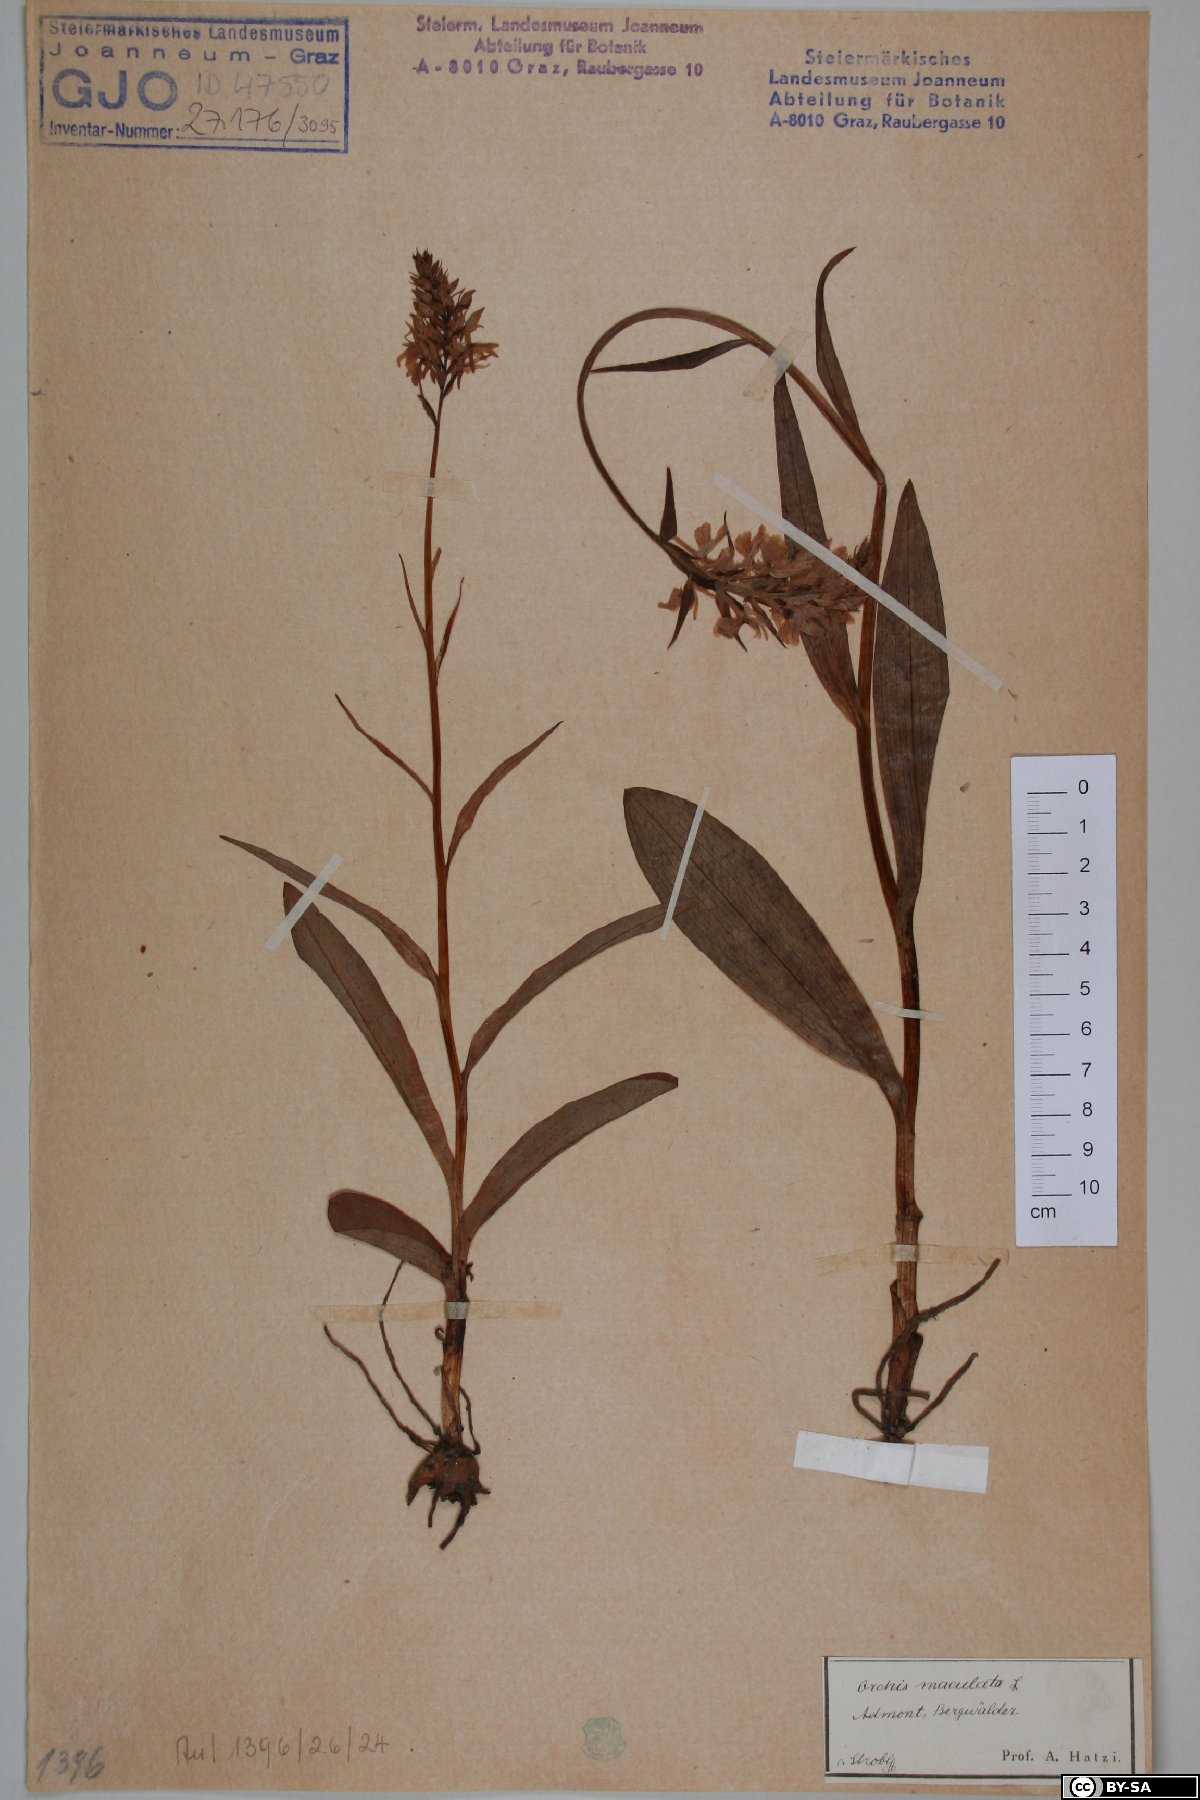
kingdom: Plantae
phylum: Tracheophyta
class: Liliopsida
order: Asparagales
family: Orchidaceae
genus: Dactylorhiza
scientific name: Dactylorhiza maculata
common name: Heath spotted-orchid
